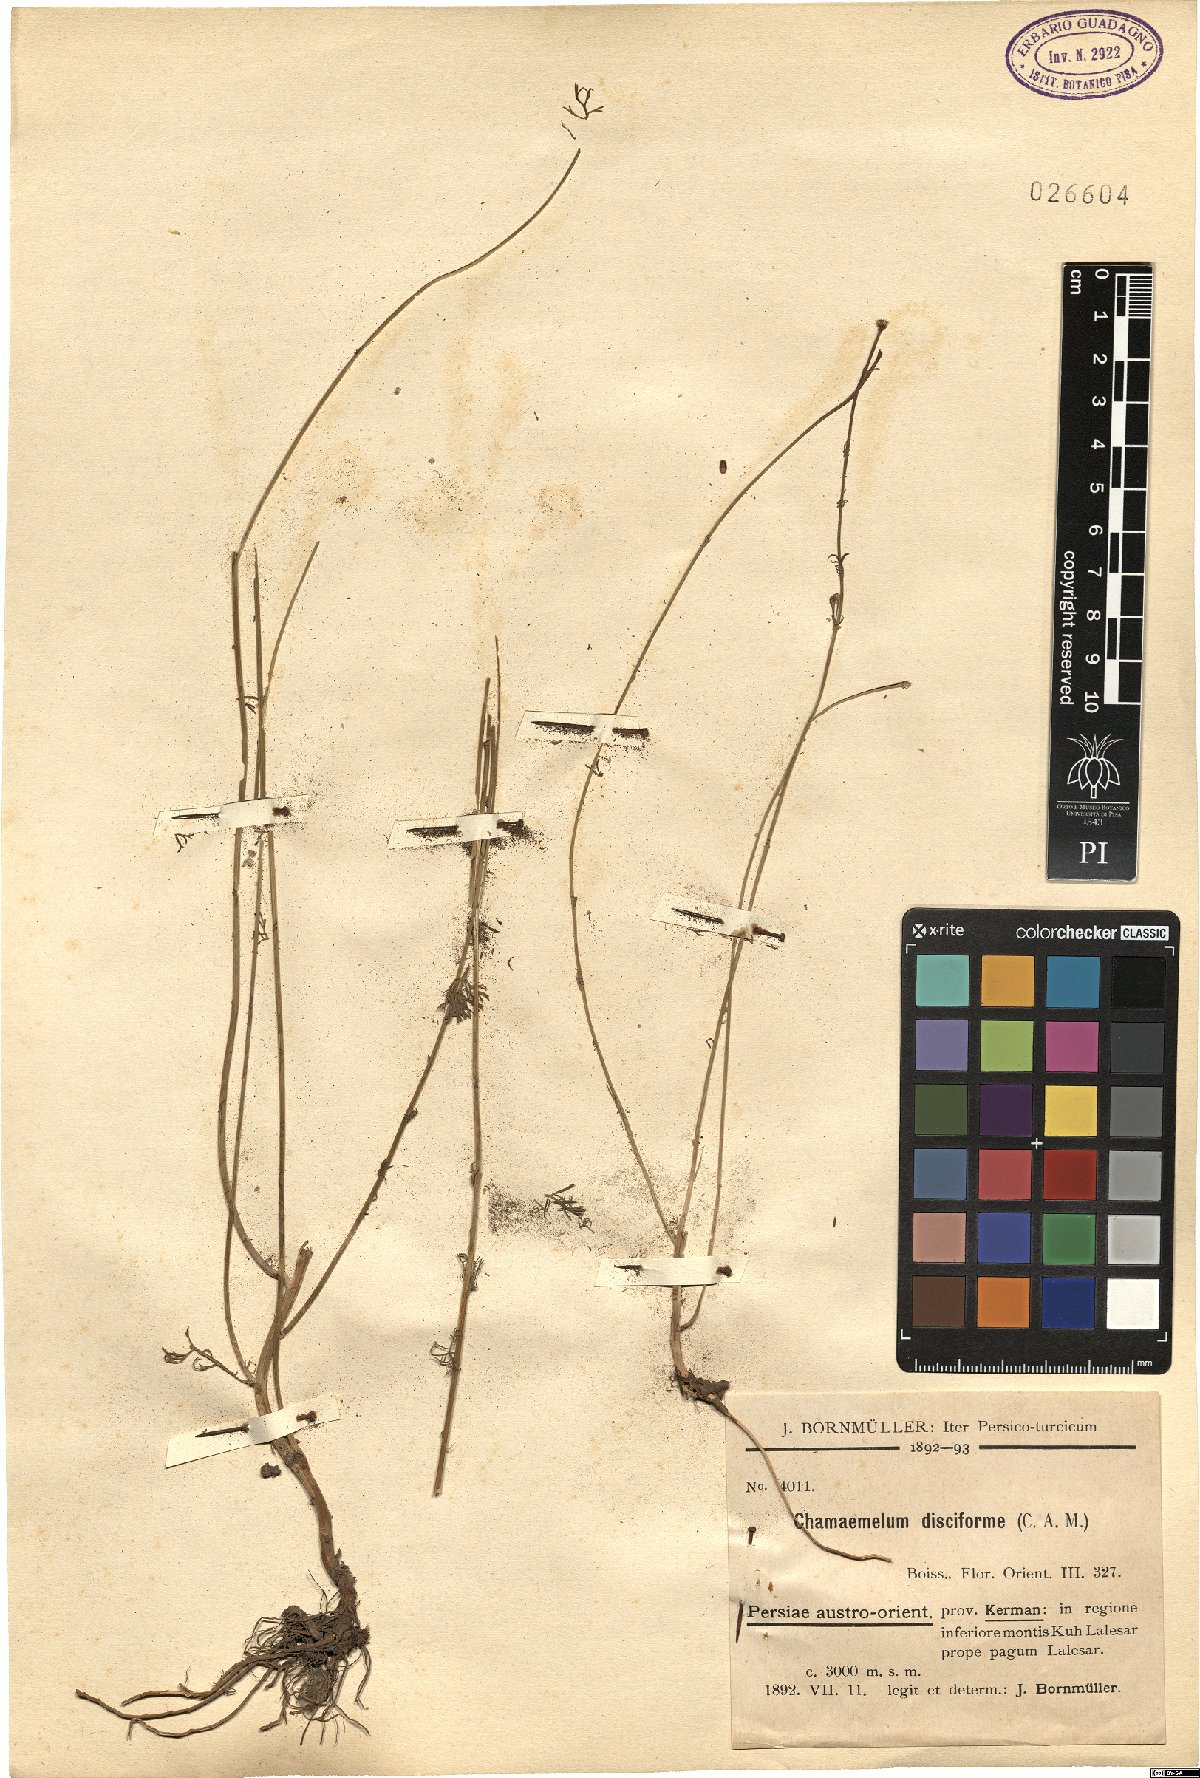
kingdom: Plantae
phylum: Tracheophyta
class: Magnoliopsida
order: Asterales
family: Asteraceae
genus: Tripleurospermum
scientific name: Tripleurospermum disciforme
